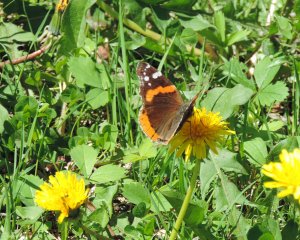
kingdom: Animalia
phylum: Arthropoda
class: Insecta
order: Lepidoptera
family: Nymphalidae
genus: Vanessa
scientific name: Vanessa atalanta
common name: Red Admiral
